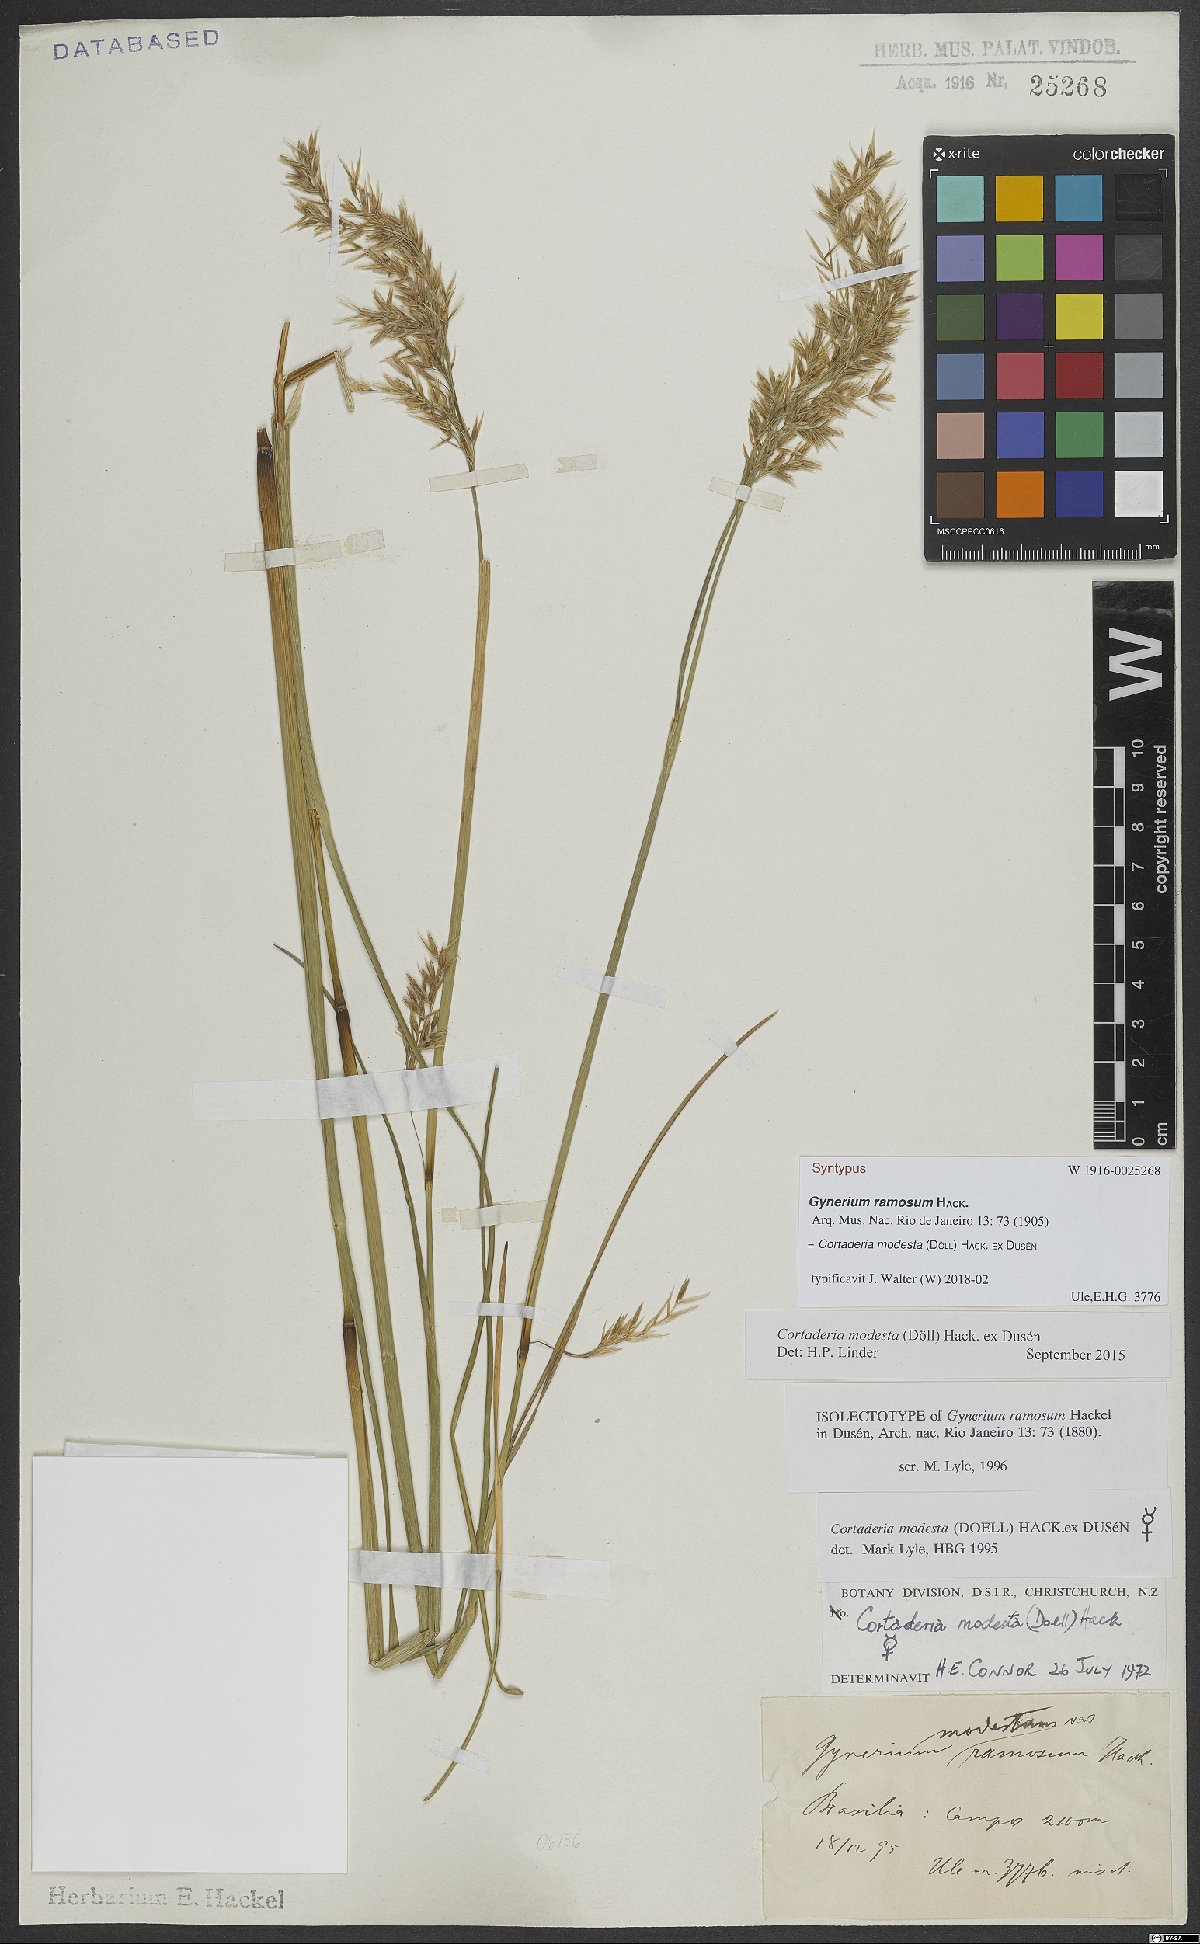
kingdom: Plantae
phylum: Tracheophyta
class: Liliopsida
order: Poales
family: Poaceae
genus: Cortaderia
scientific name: Cortaderia modesta
